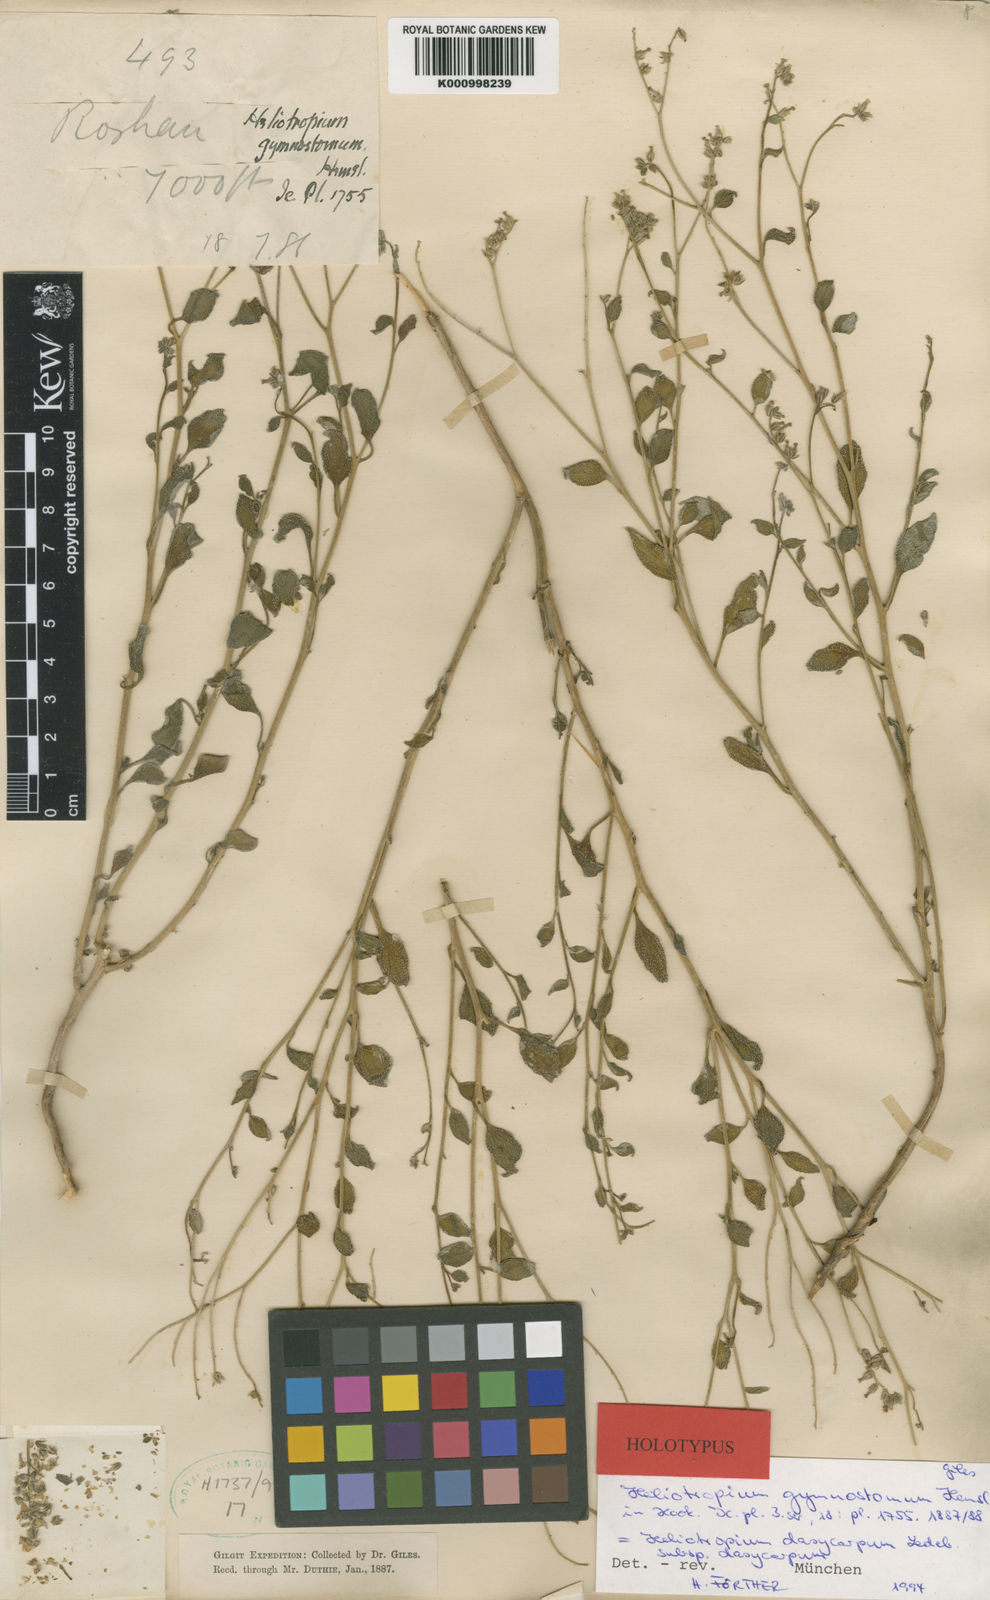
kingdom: Plantae
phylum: Tracheophyta
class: Magnoliopsida
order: Boraginales
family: Heliotropiaceae
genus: Heliotropium
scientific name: Heliotropium dasycarpum
